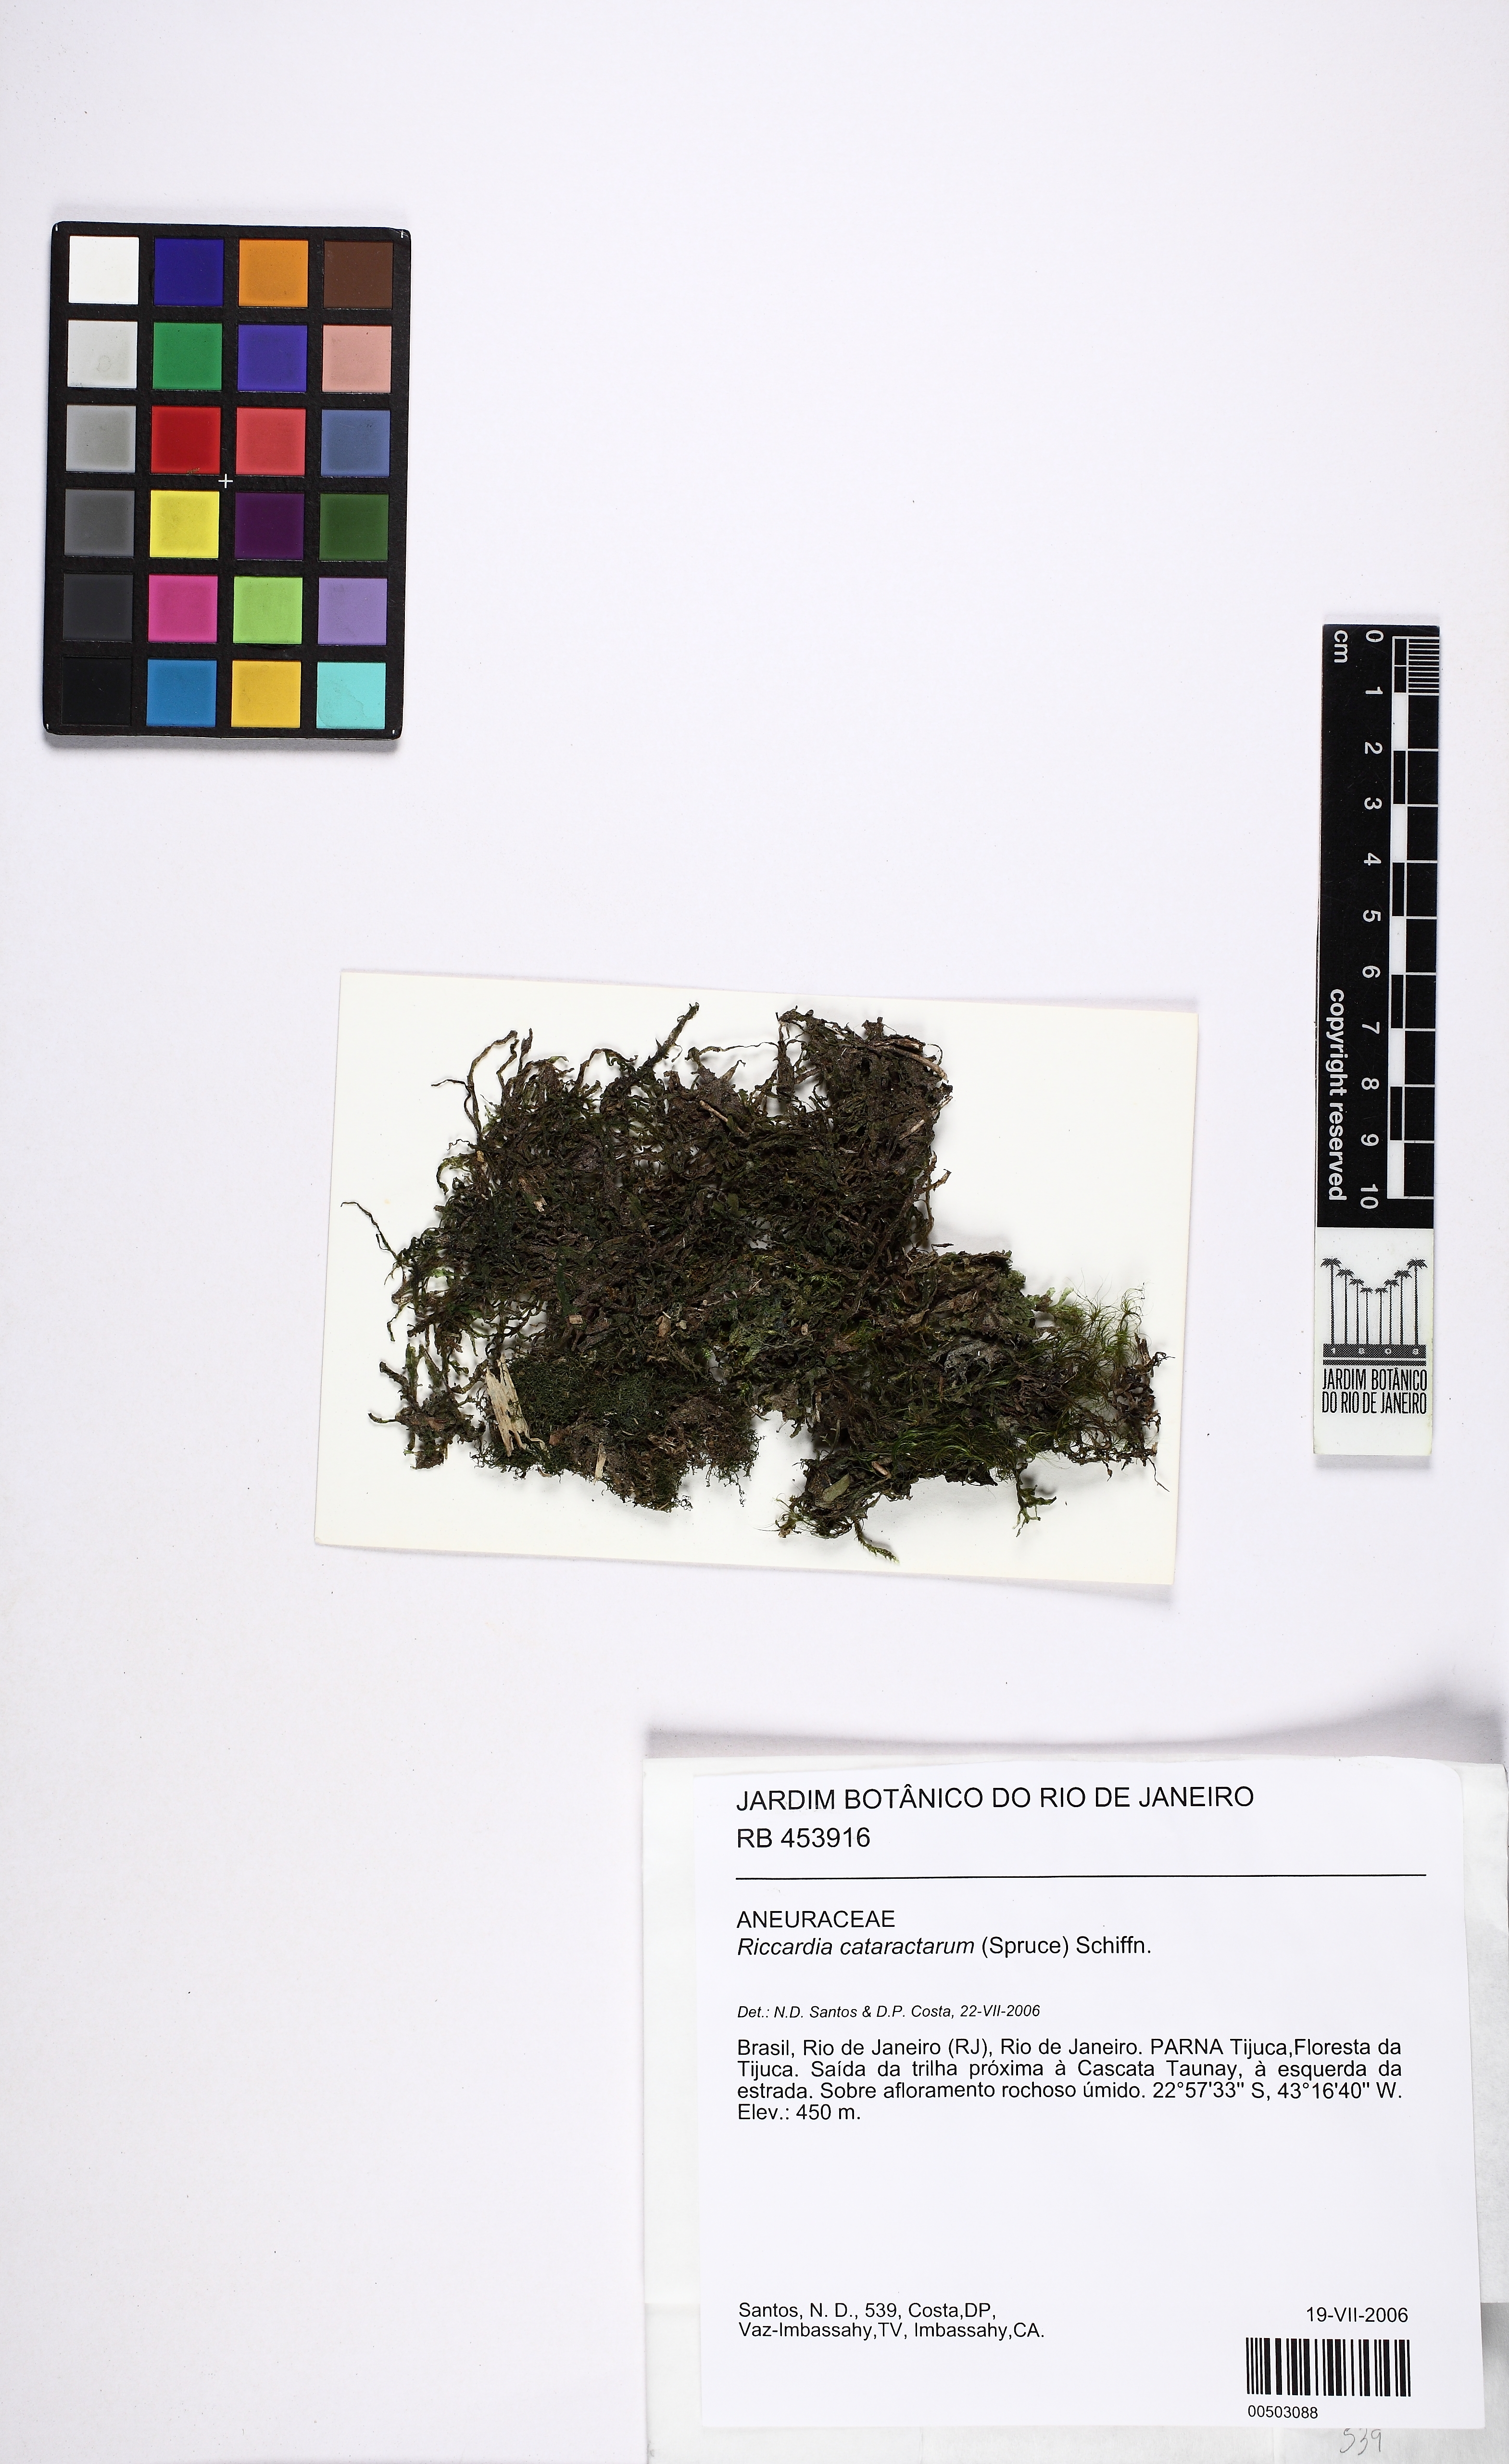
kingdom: Plantae
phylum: Marchantiophyta
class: Jungermanniopsida
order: Metzgeriales
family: Aneuraceae
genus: Riccardia
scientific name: Riccardia cataractarum
